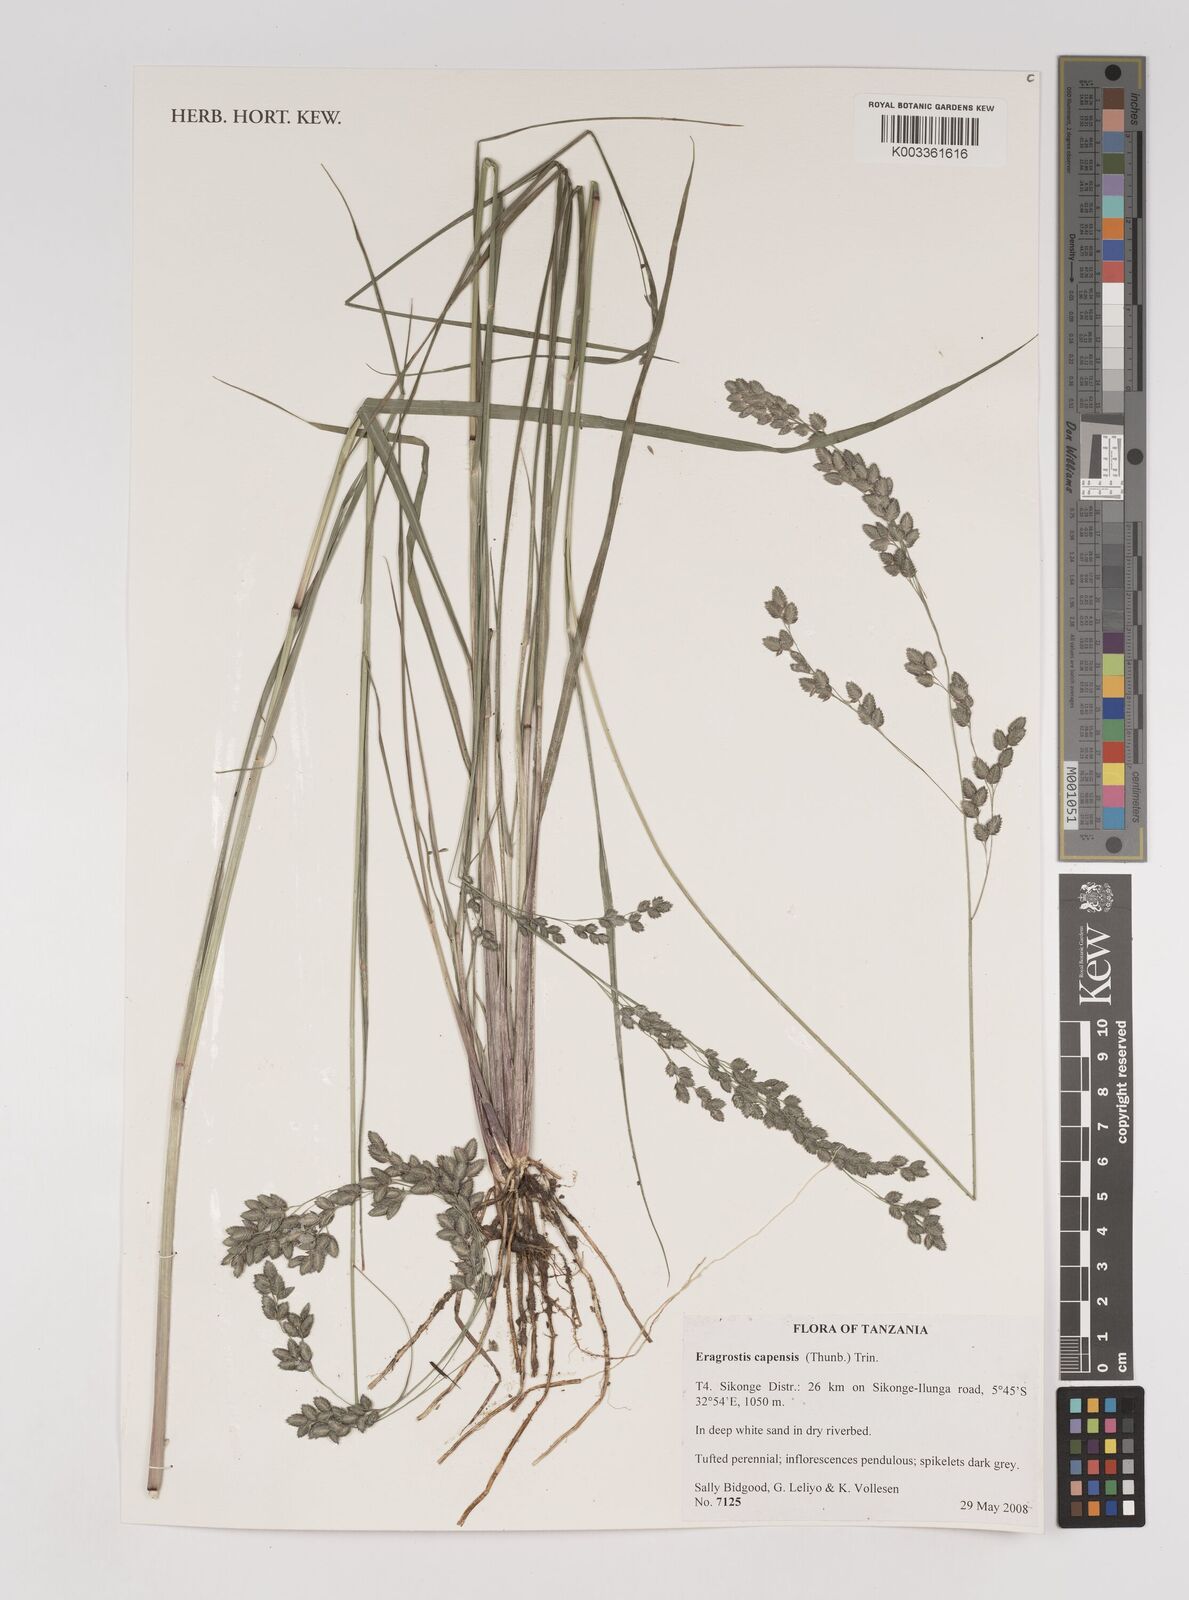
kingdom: Plantae
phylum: Tracheophyta
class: Liliopsida
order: Poales
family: Poaceae
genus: Eragrostis
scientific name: Eragrostis capensis
